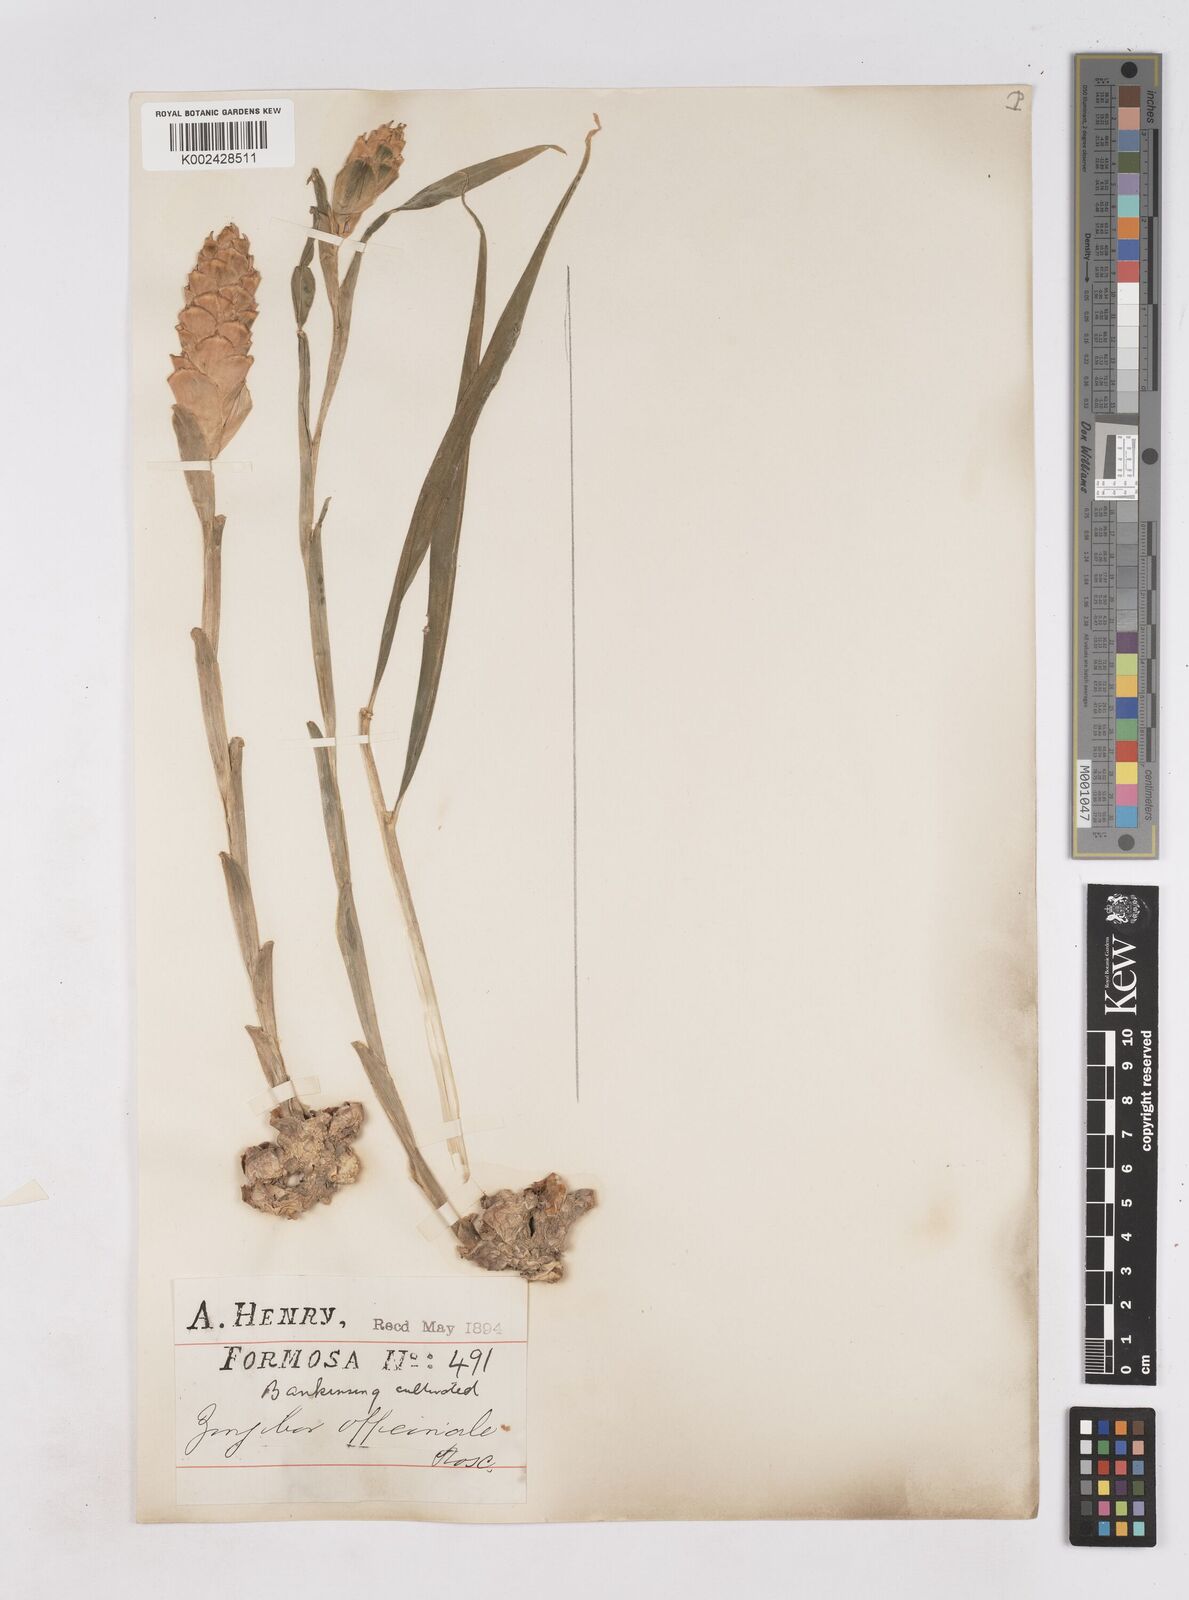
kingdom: Plantae
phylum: Tracheophyta
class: Liliopsida
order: Zingiberales
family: Zingiberaceae
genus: Zingiber
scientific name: Zingiber officinale
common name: Ginger
